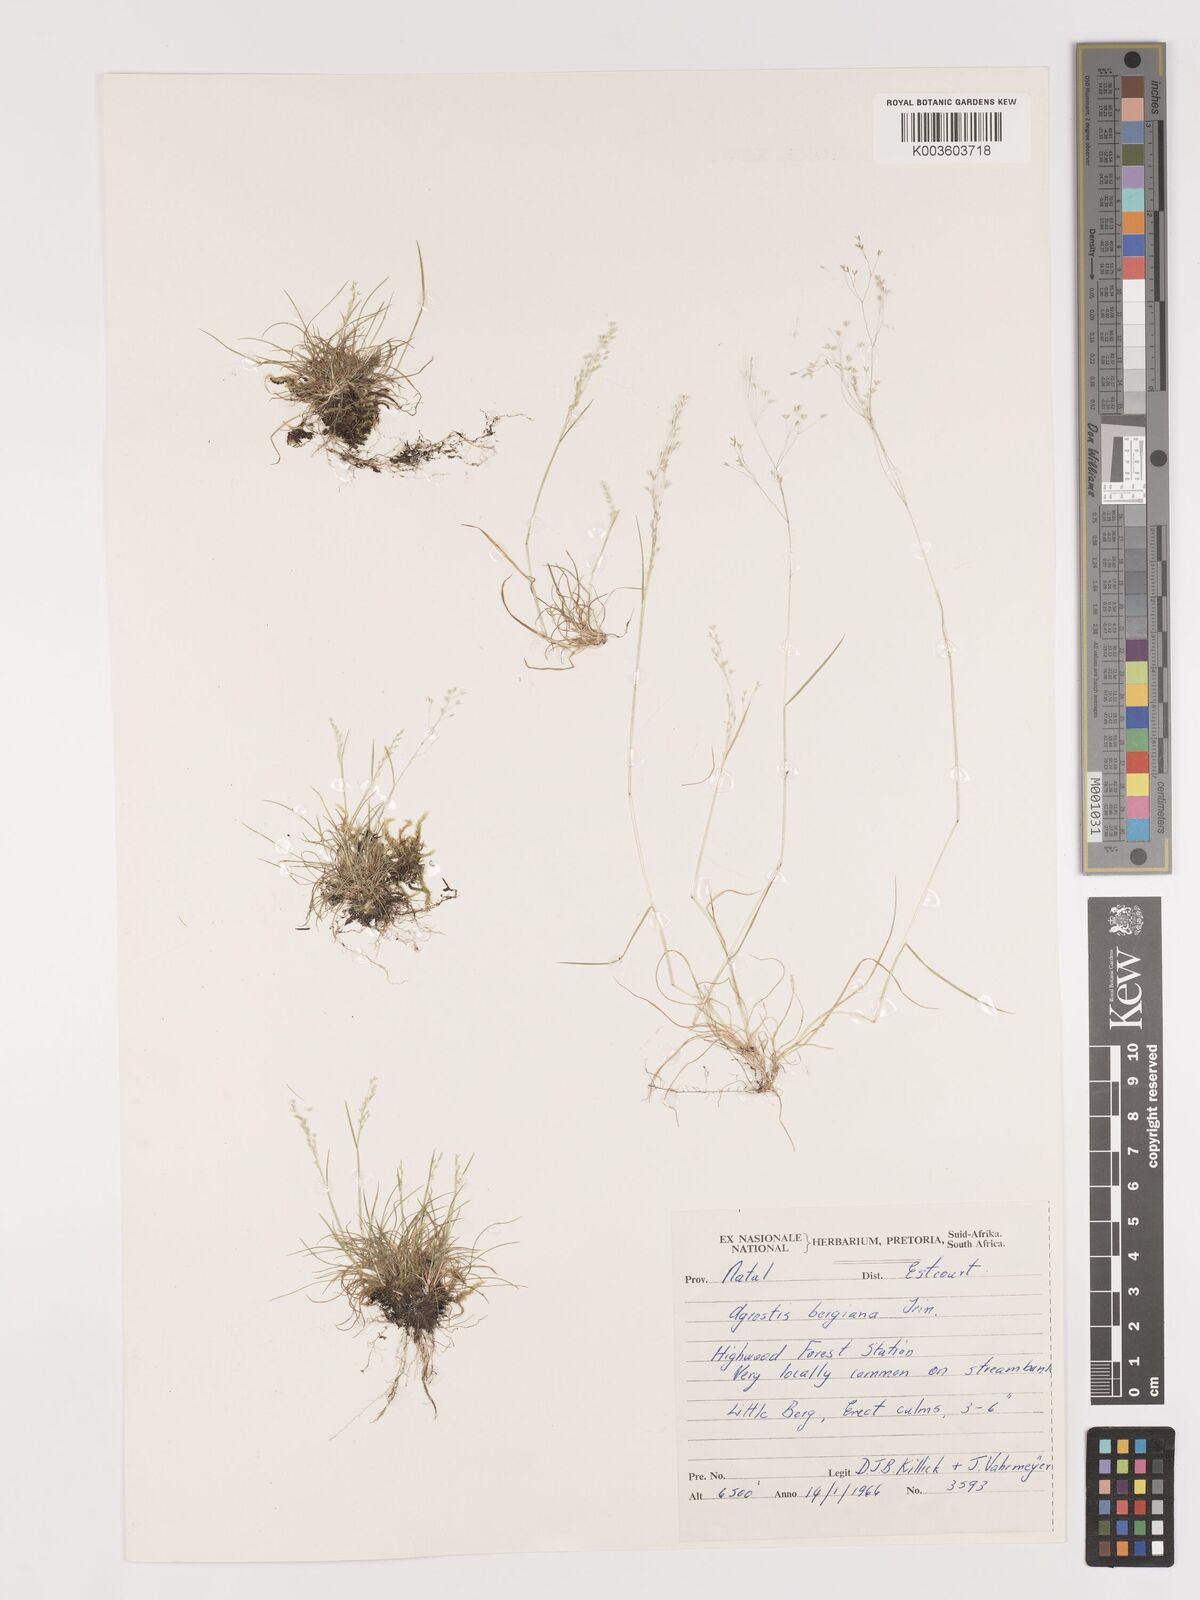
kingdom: Plantae
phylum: Tracheophyta
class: Liliopsida
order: Poales
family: Poaceae
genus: Agrostis
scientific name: Agrostis bergiana
